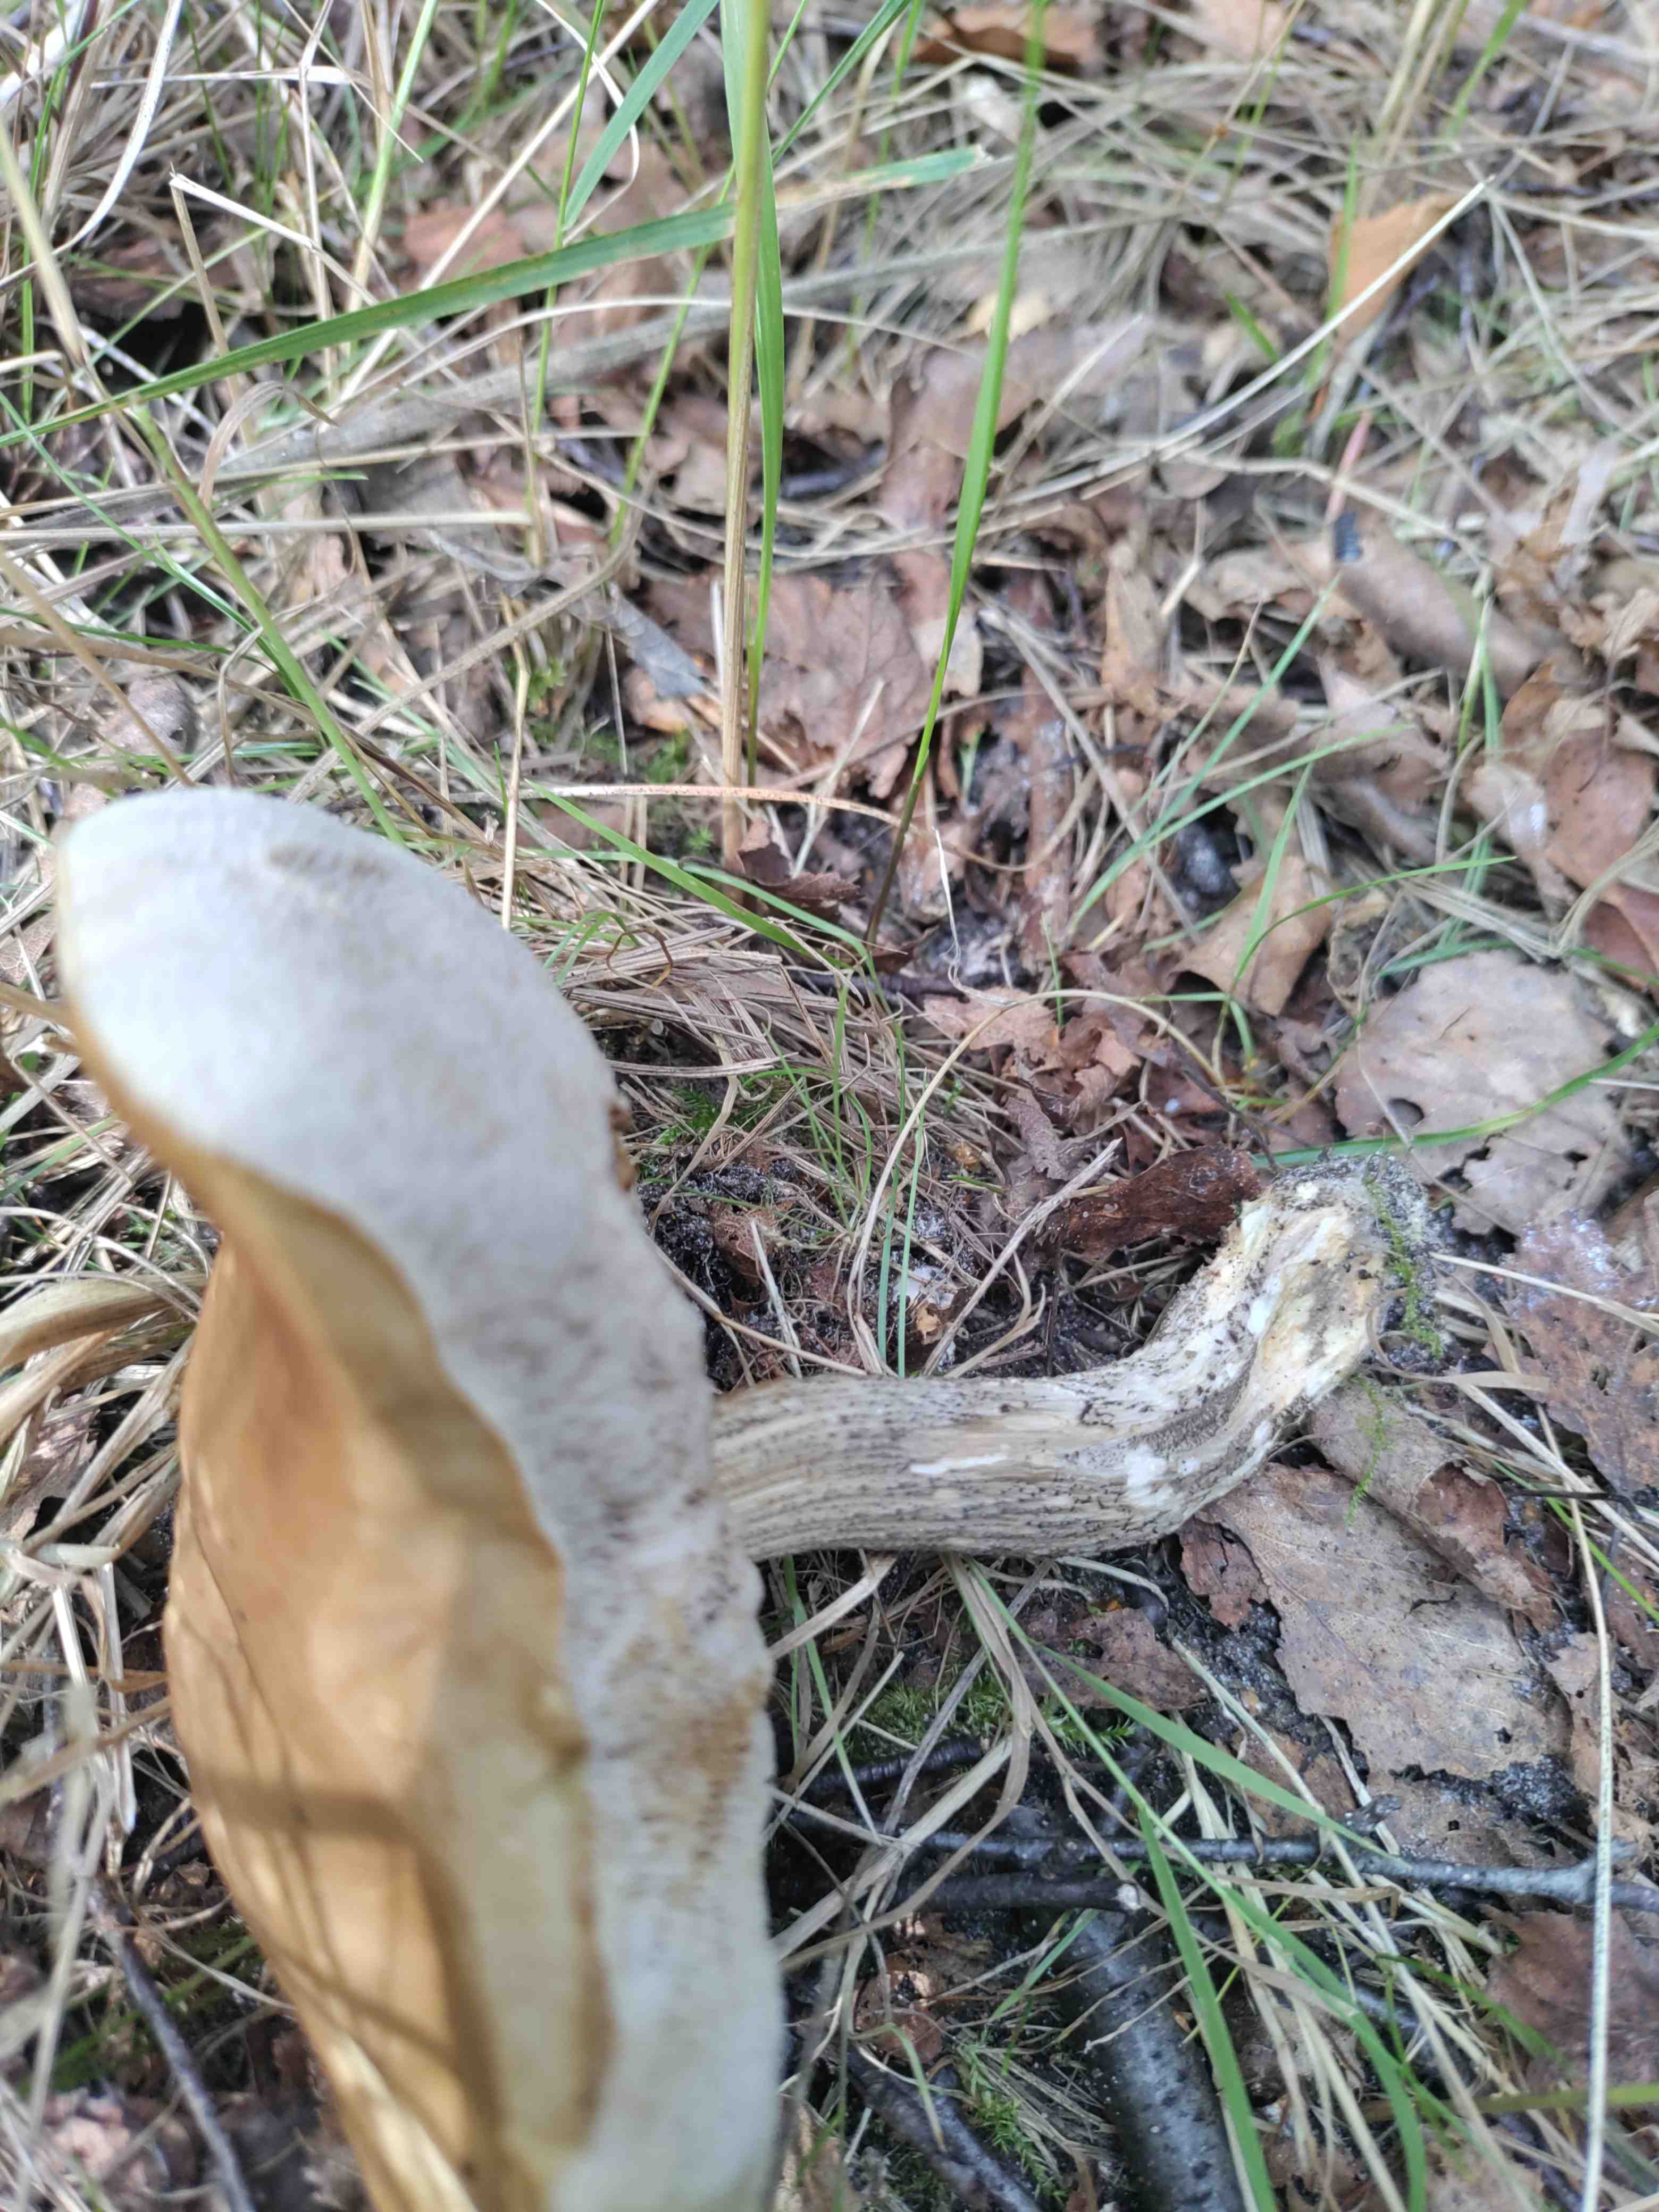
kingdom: Fungi
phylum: Basidiomycota
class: Agaricomycetes
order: Boletales
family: Boletaceae
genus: Leccinum
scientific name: Leccinum scabrum
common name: brun skælrørhat
